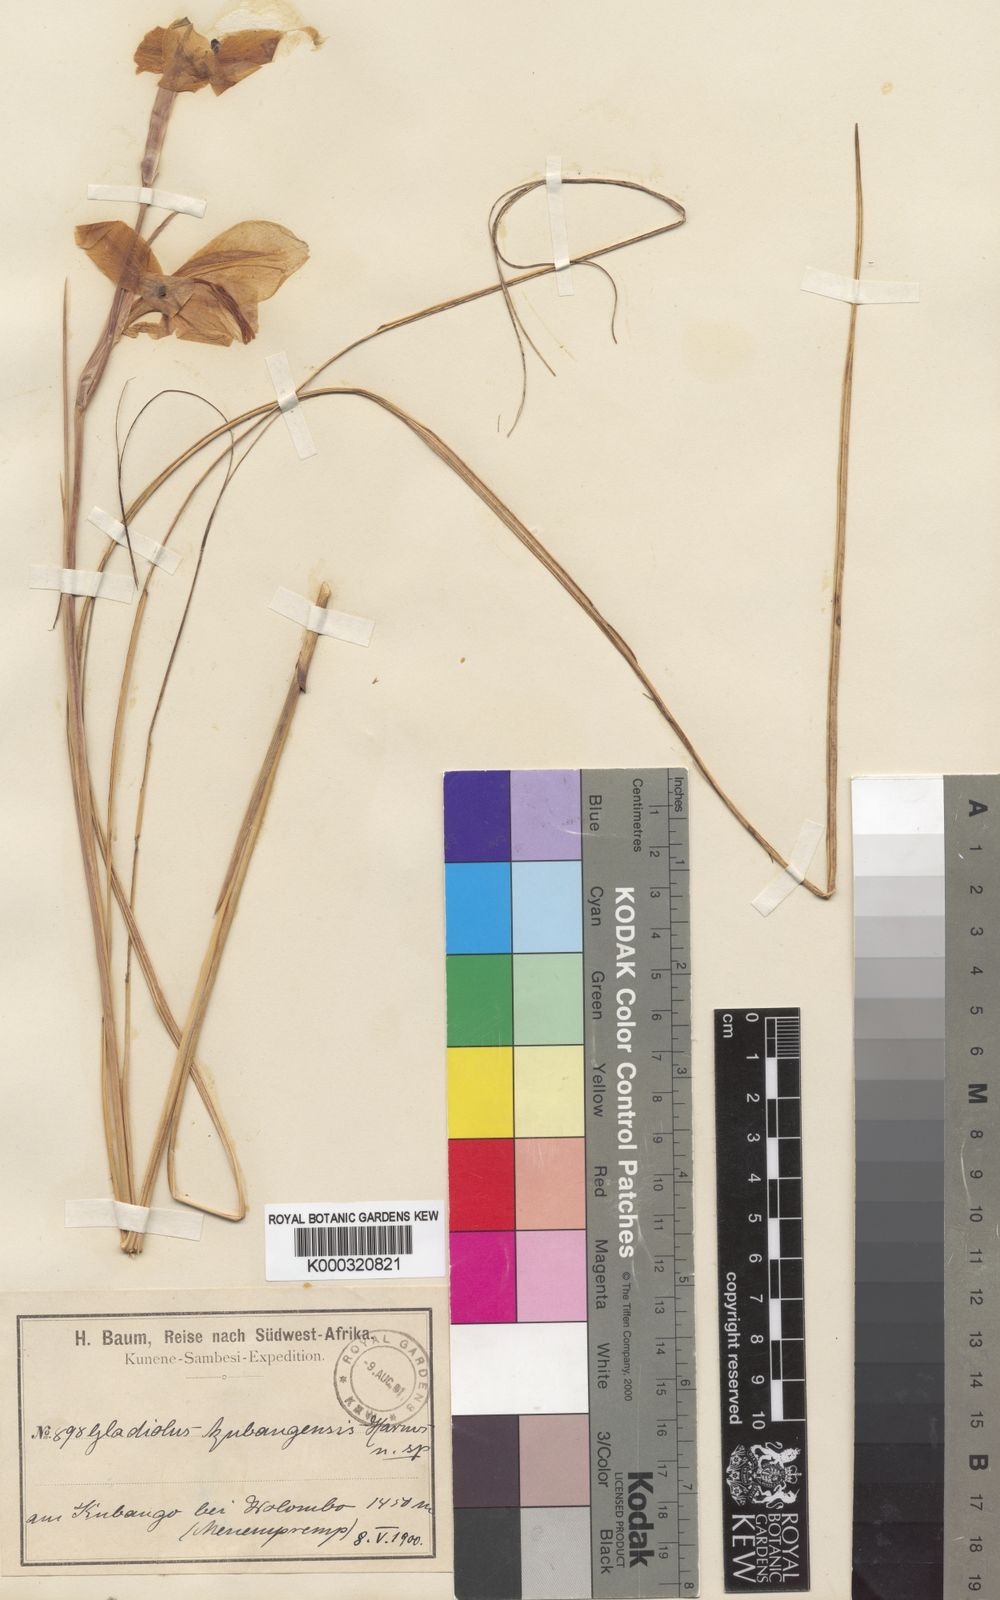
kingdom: Plantae
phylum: Tracheophyta
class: Liliopsida
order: Asparagales
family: Iridaceae
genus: Gladiolus
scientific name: Gladiolus baumii
